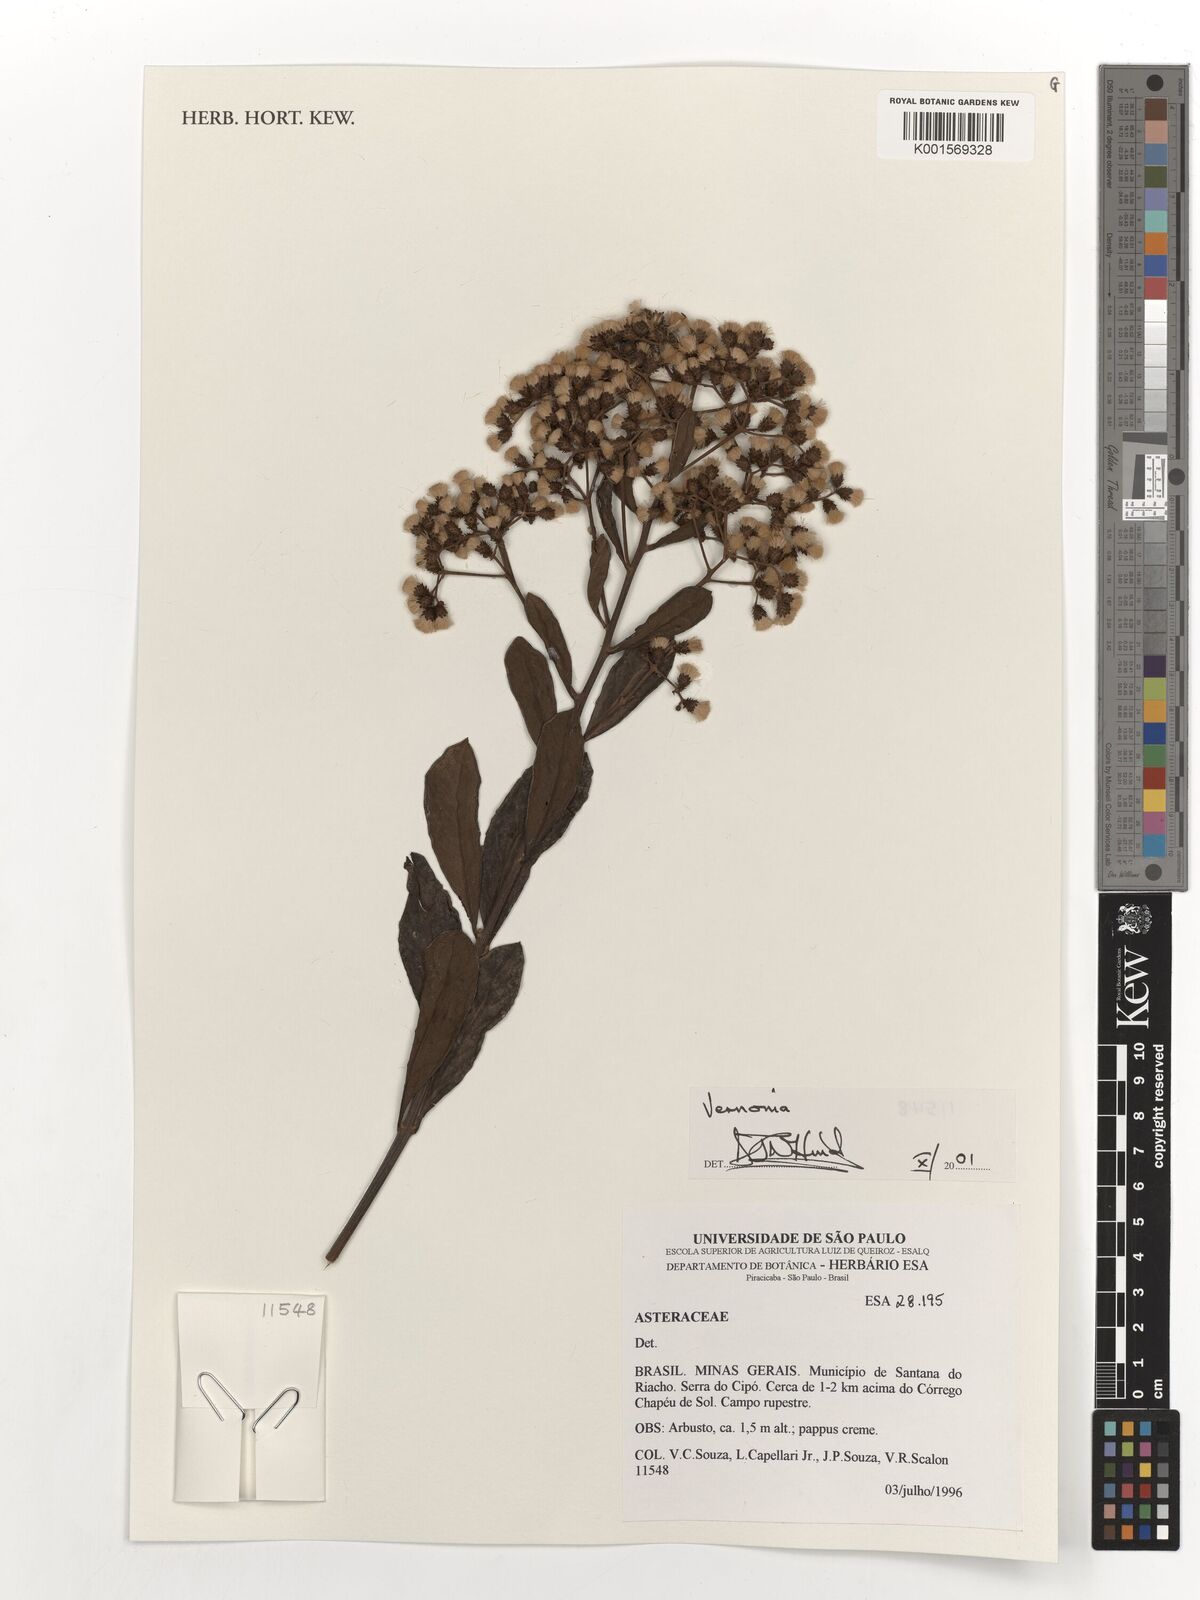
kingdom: Plantae
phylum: Tracheophyta
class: Magnoliopsida
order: Asterales
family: Asteraceae
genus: Vernonia
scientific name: Vernonia
